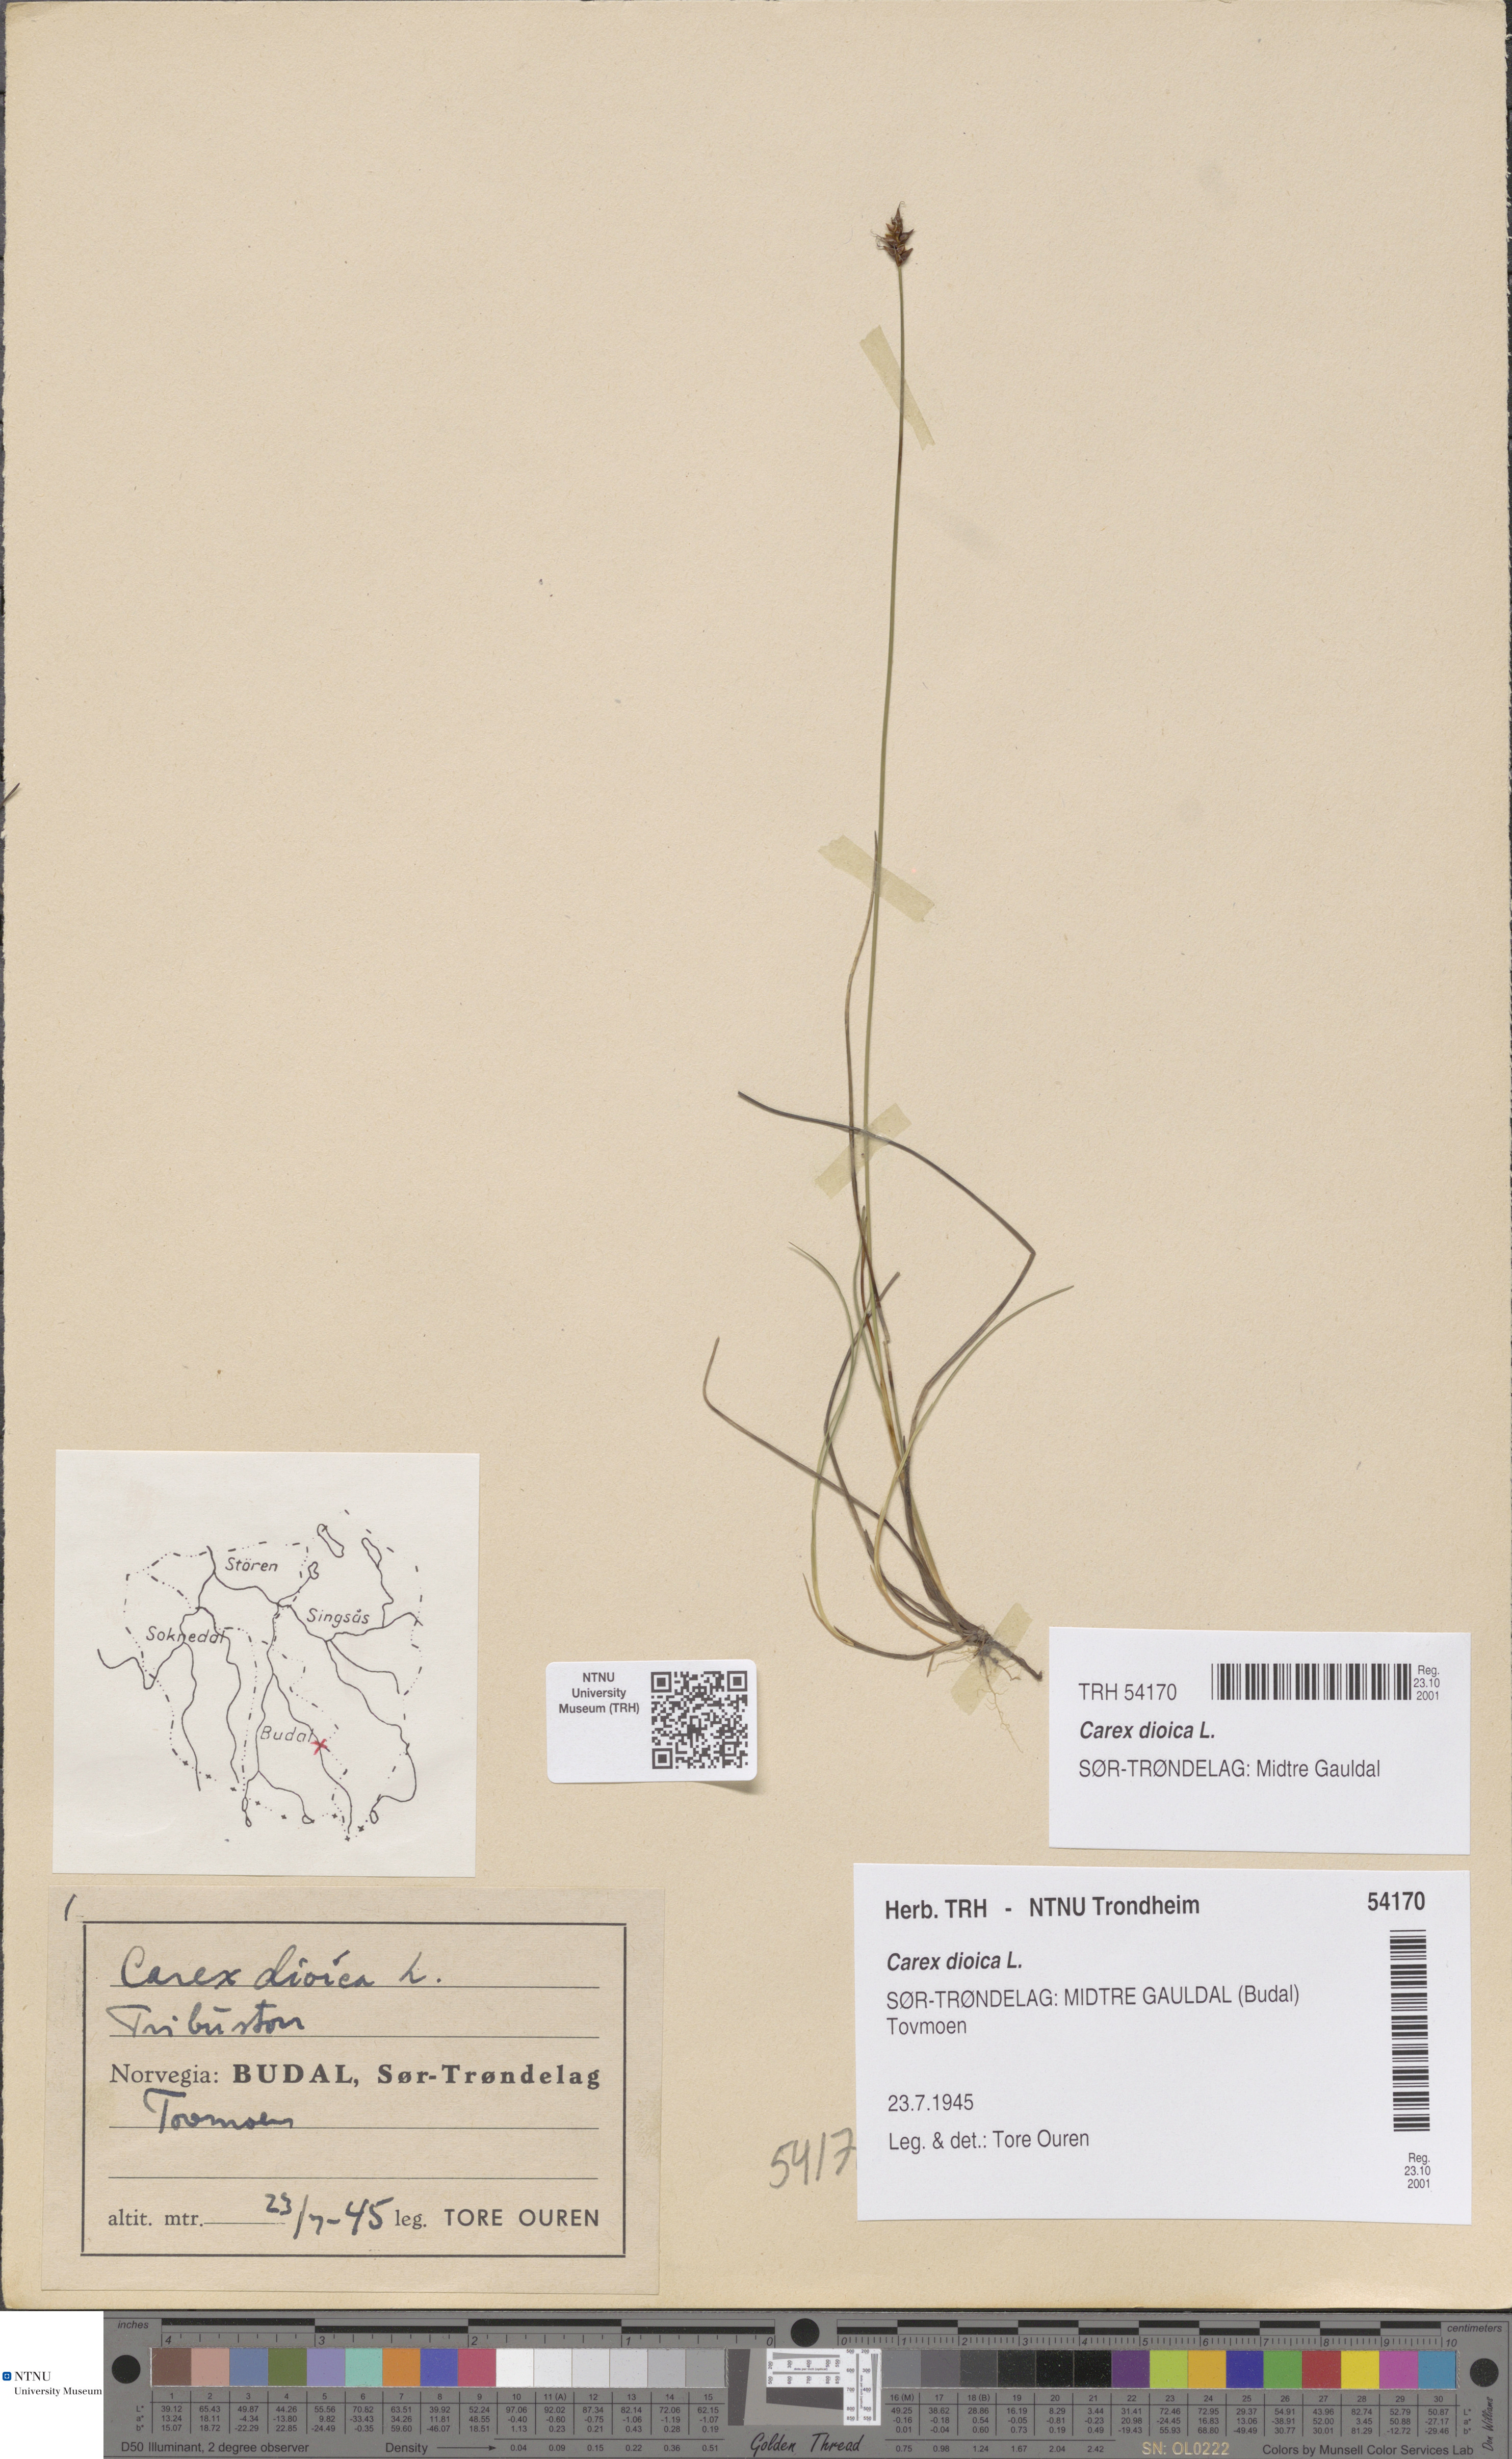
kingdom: Plantae
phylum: Tracheophyta
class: Liliopsida
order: Poales
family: Cyperaceae
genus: Carex
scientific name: Carex dioica
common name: Dioecious sedge
